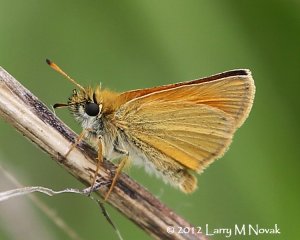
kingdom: Animalia
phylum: Arthropoda
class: Insecta
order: Lepidoptera
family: Hesperiidae
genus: Thymelicus
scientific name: Thymelicus lineola
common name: European Skipper
